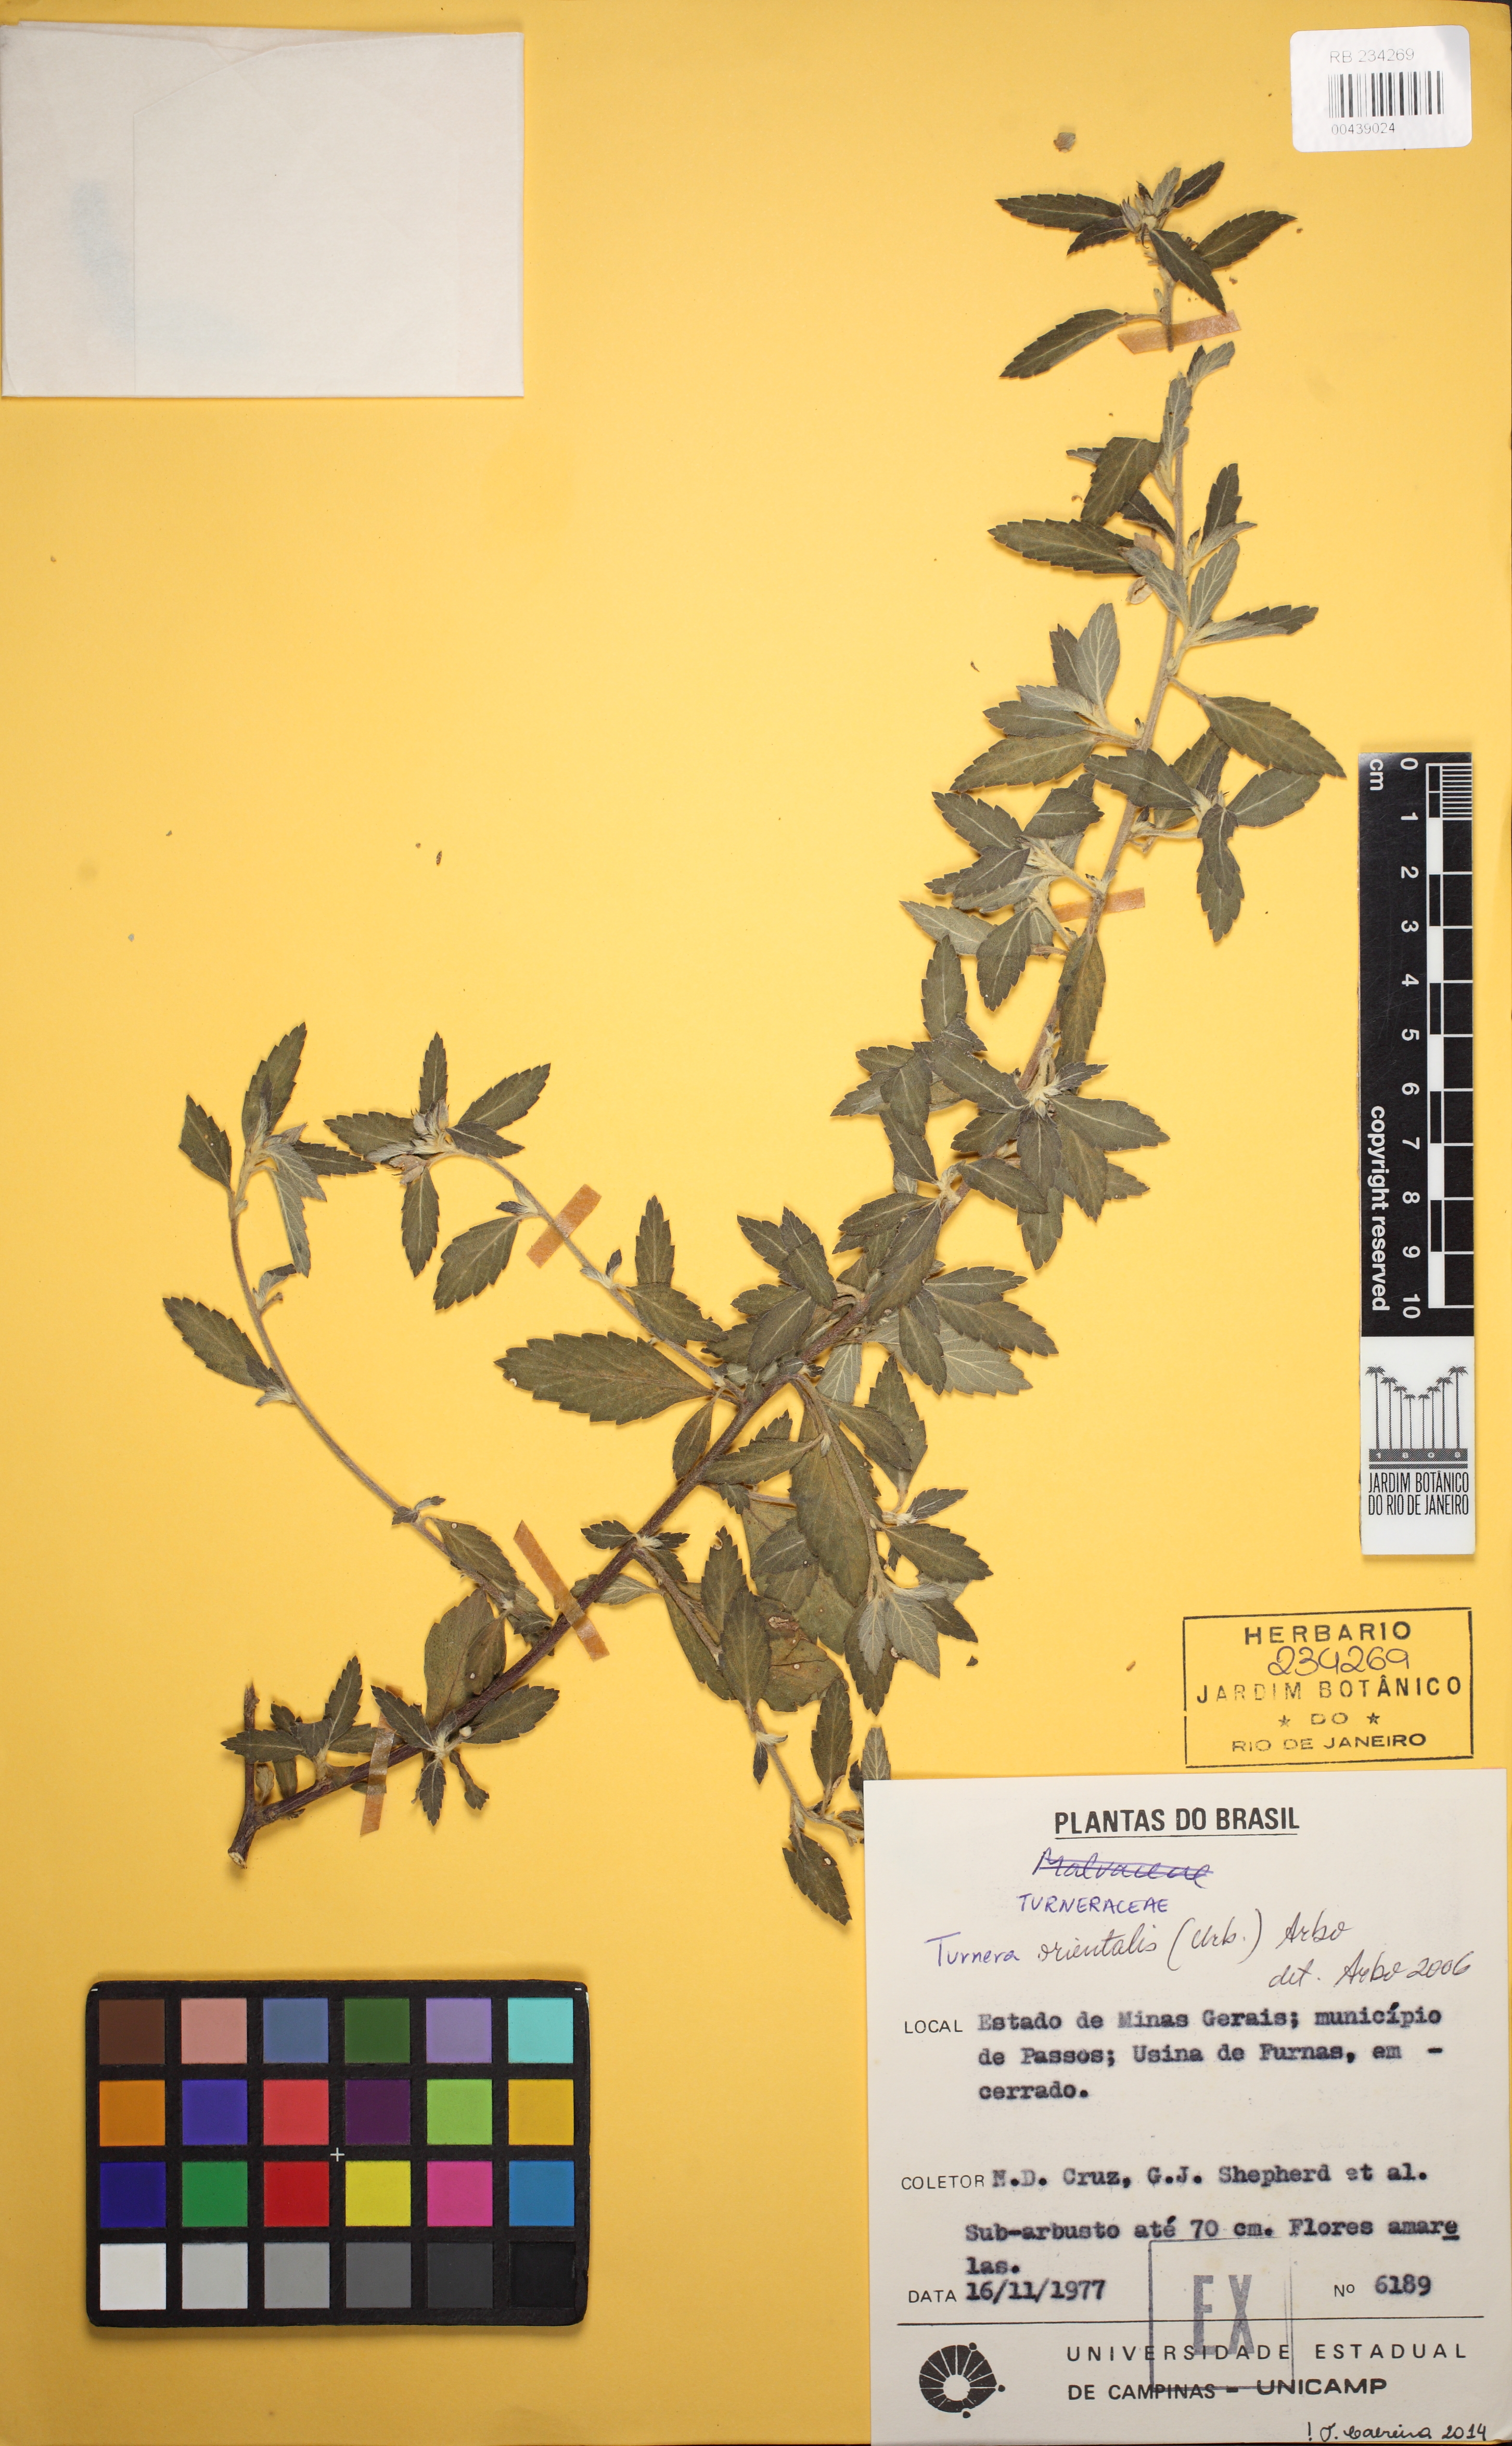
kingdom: Plantae
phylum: Tracheophyta
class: Magnoliopsida
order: Malpighiales
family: Turneraceae
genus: Turnera
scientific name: Turnera orientalis
